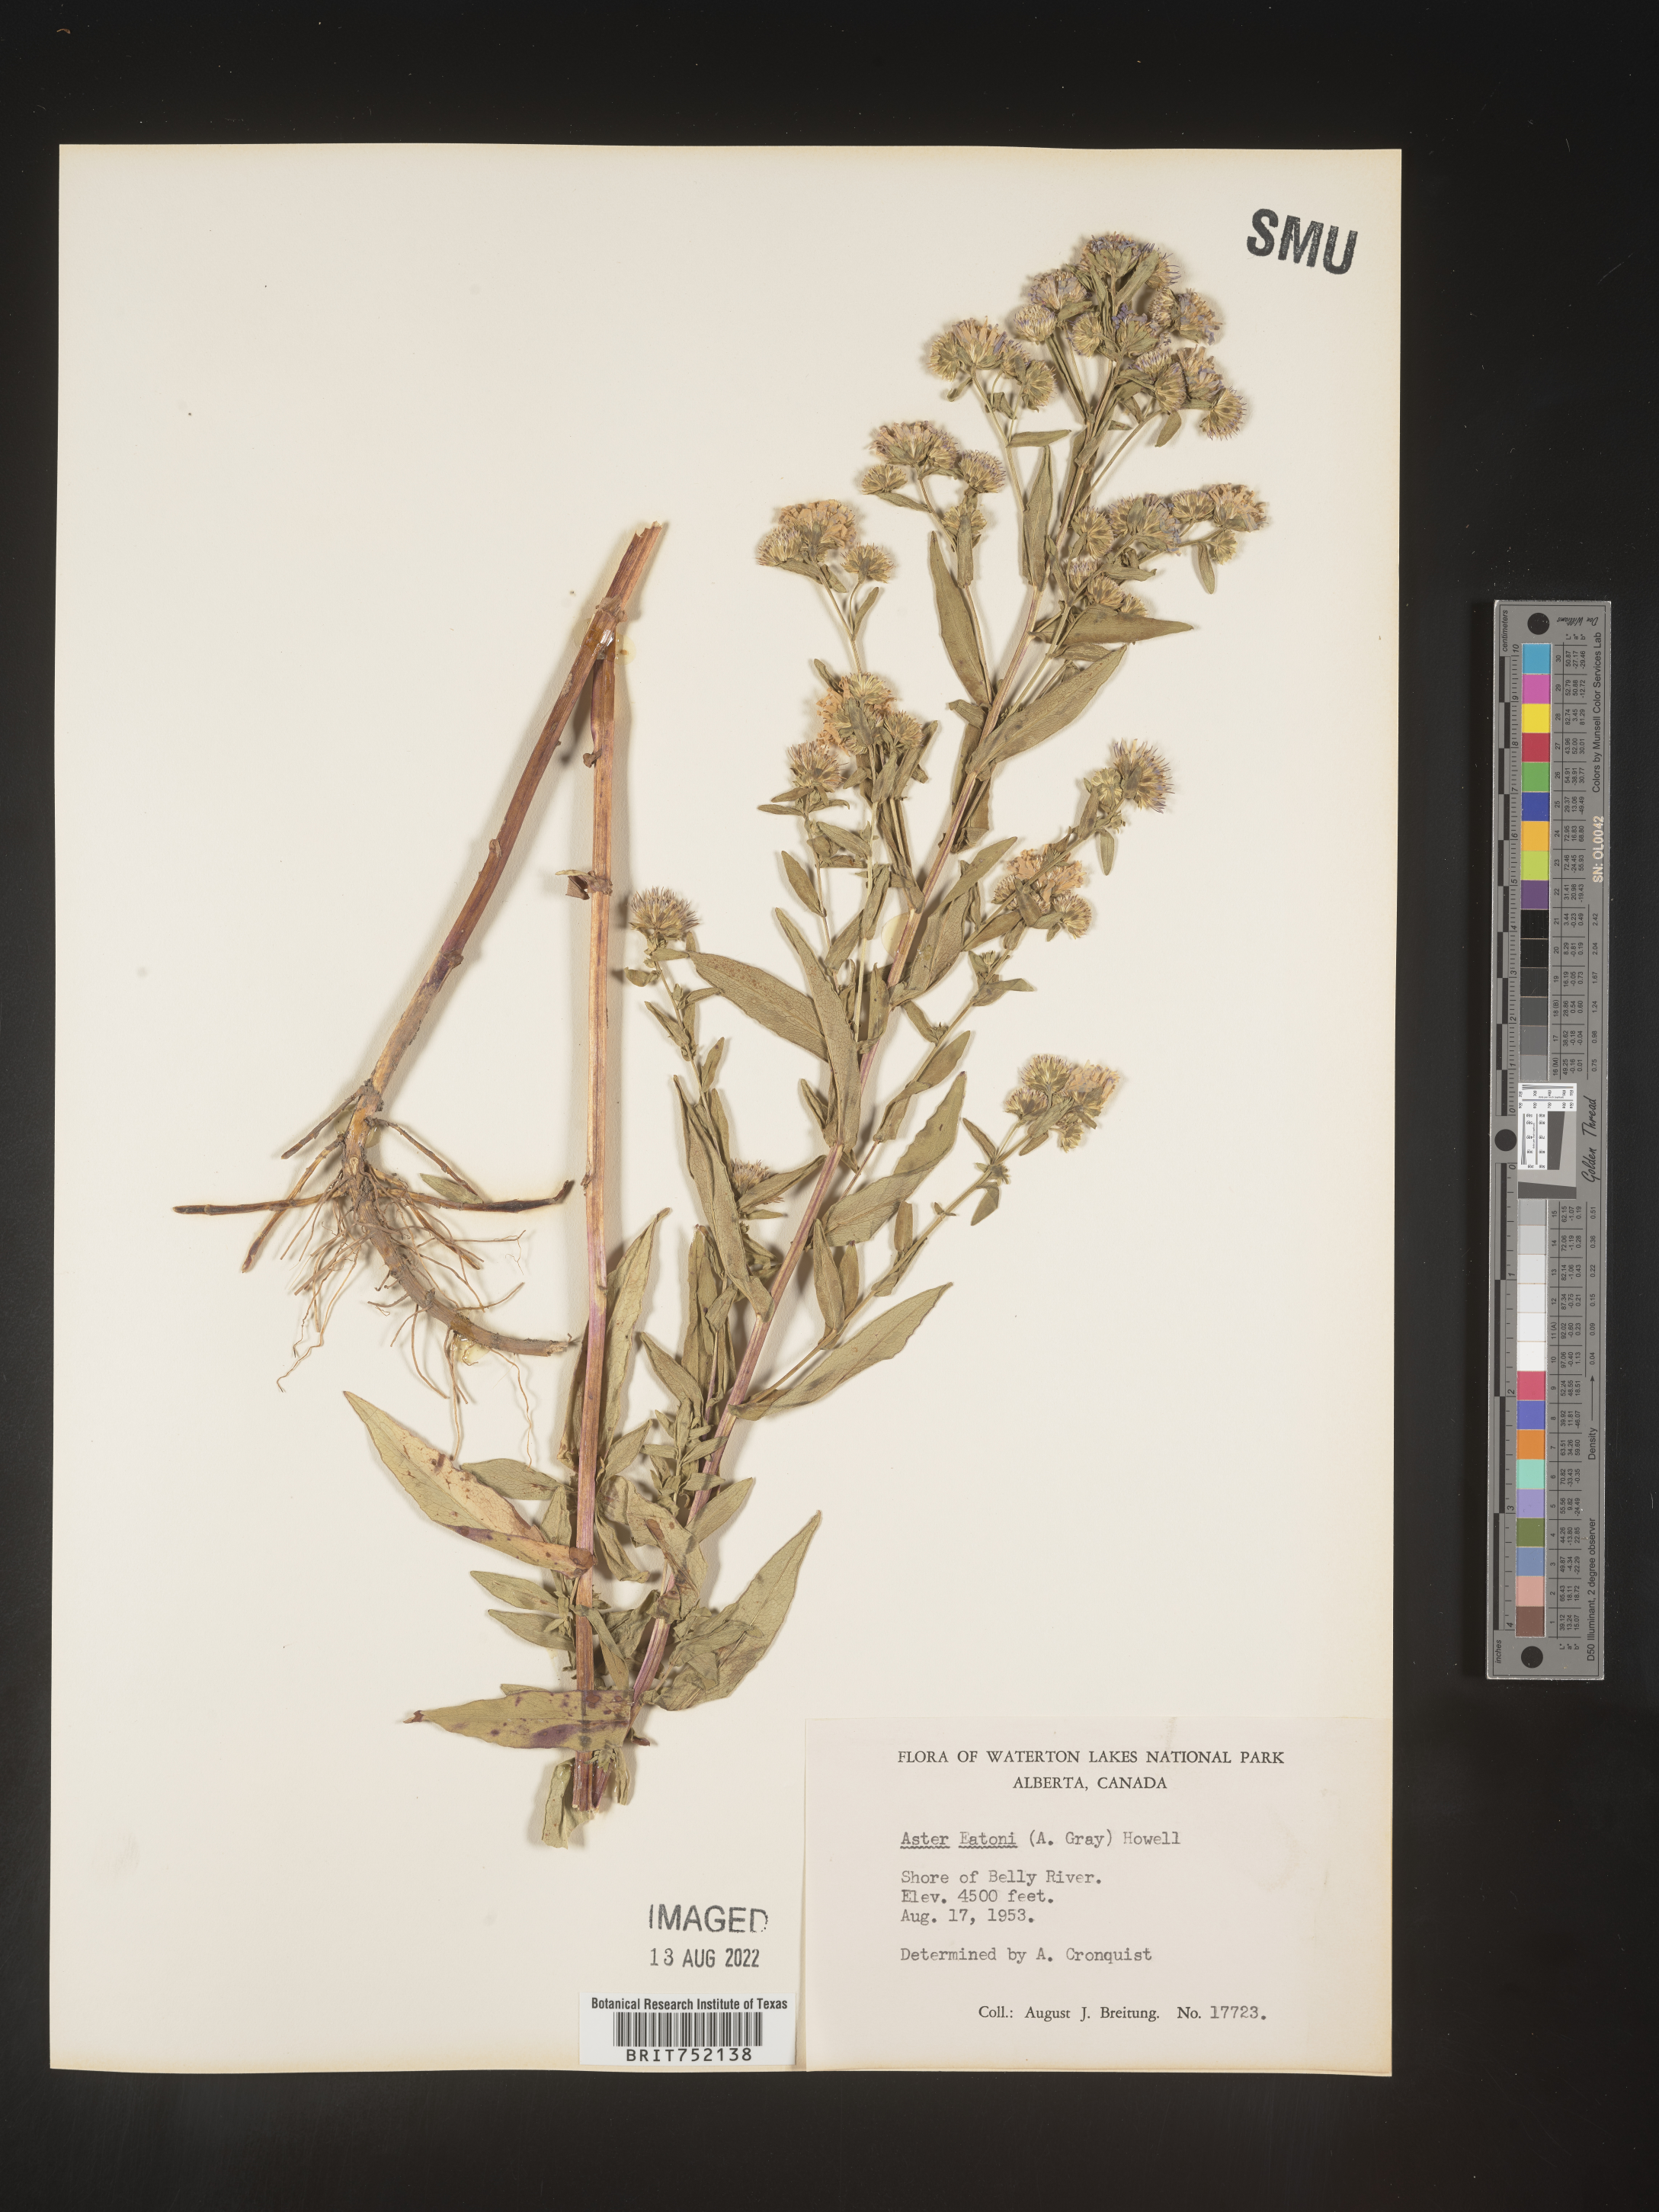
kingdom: Plantae
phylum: Tracheophyta
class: Magnoliopsida
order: Asterales
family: Asteraceae
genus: Symphyotrichum
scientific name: Symphyotrichum bracteolatum
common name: Eaton's aster
